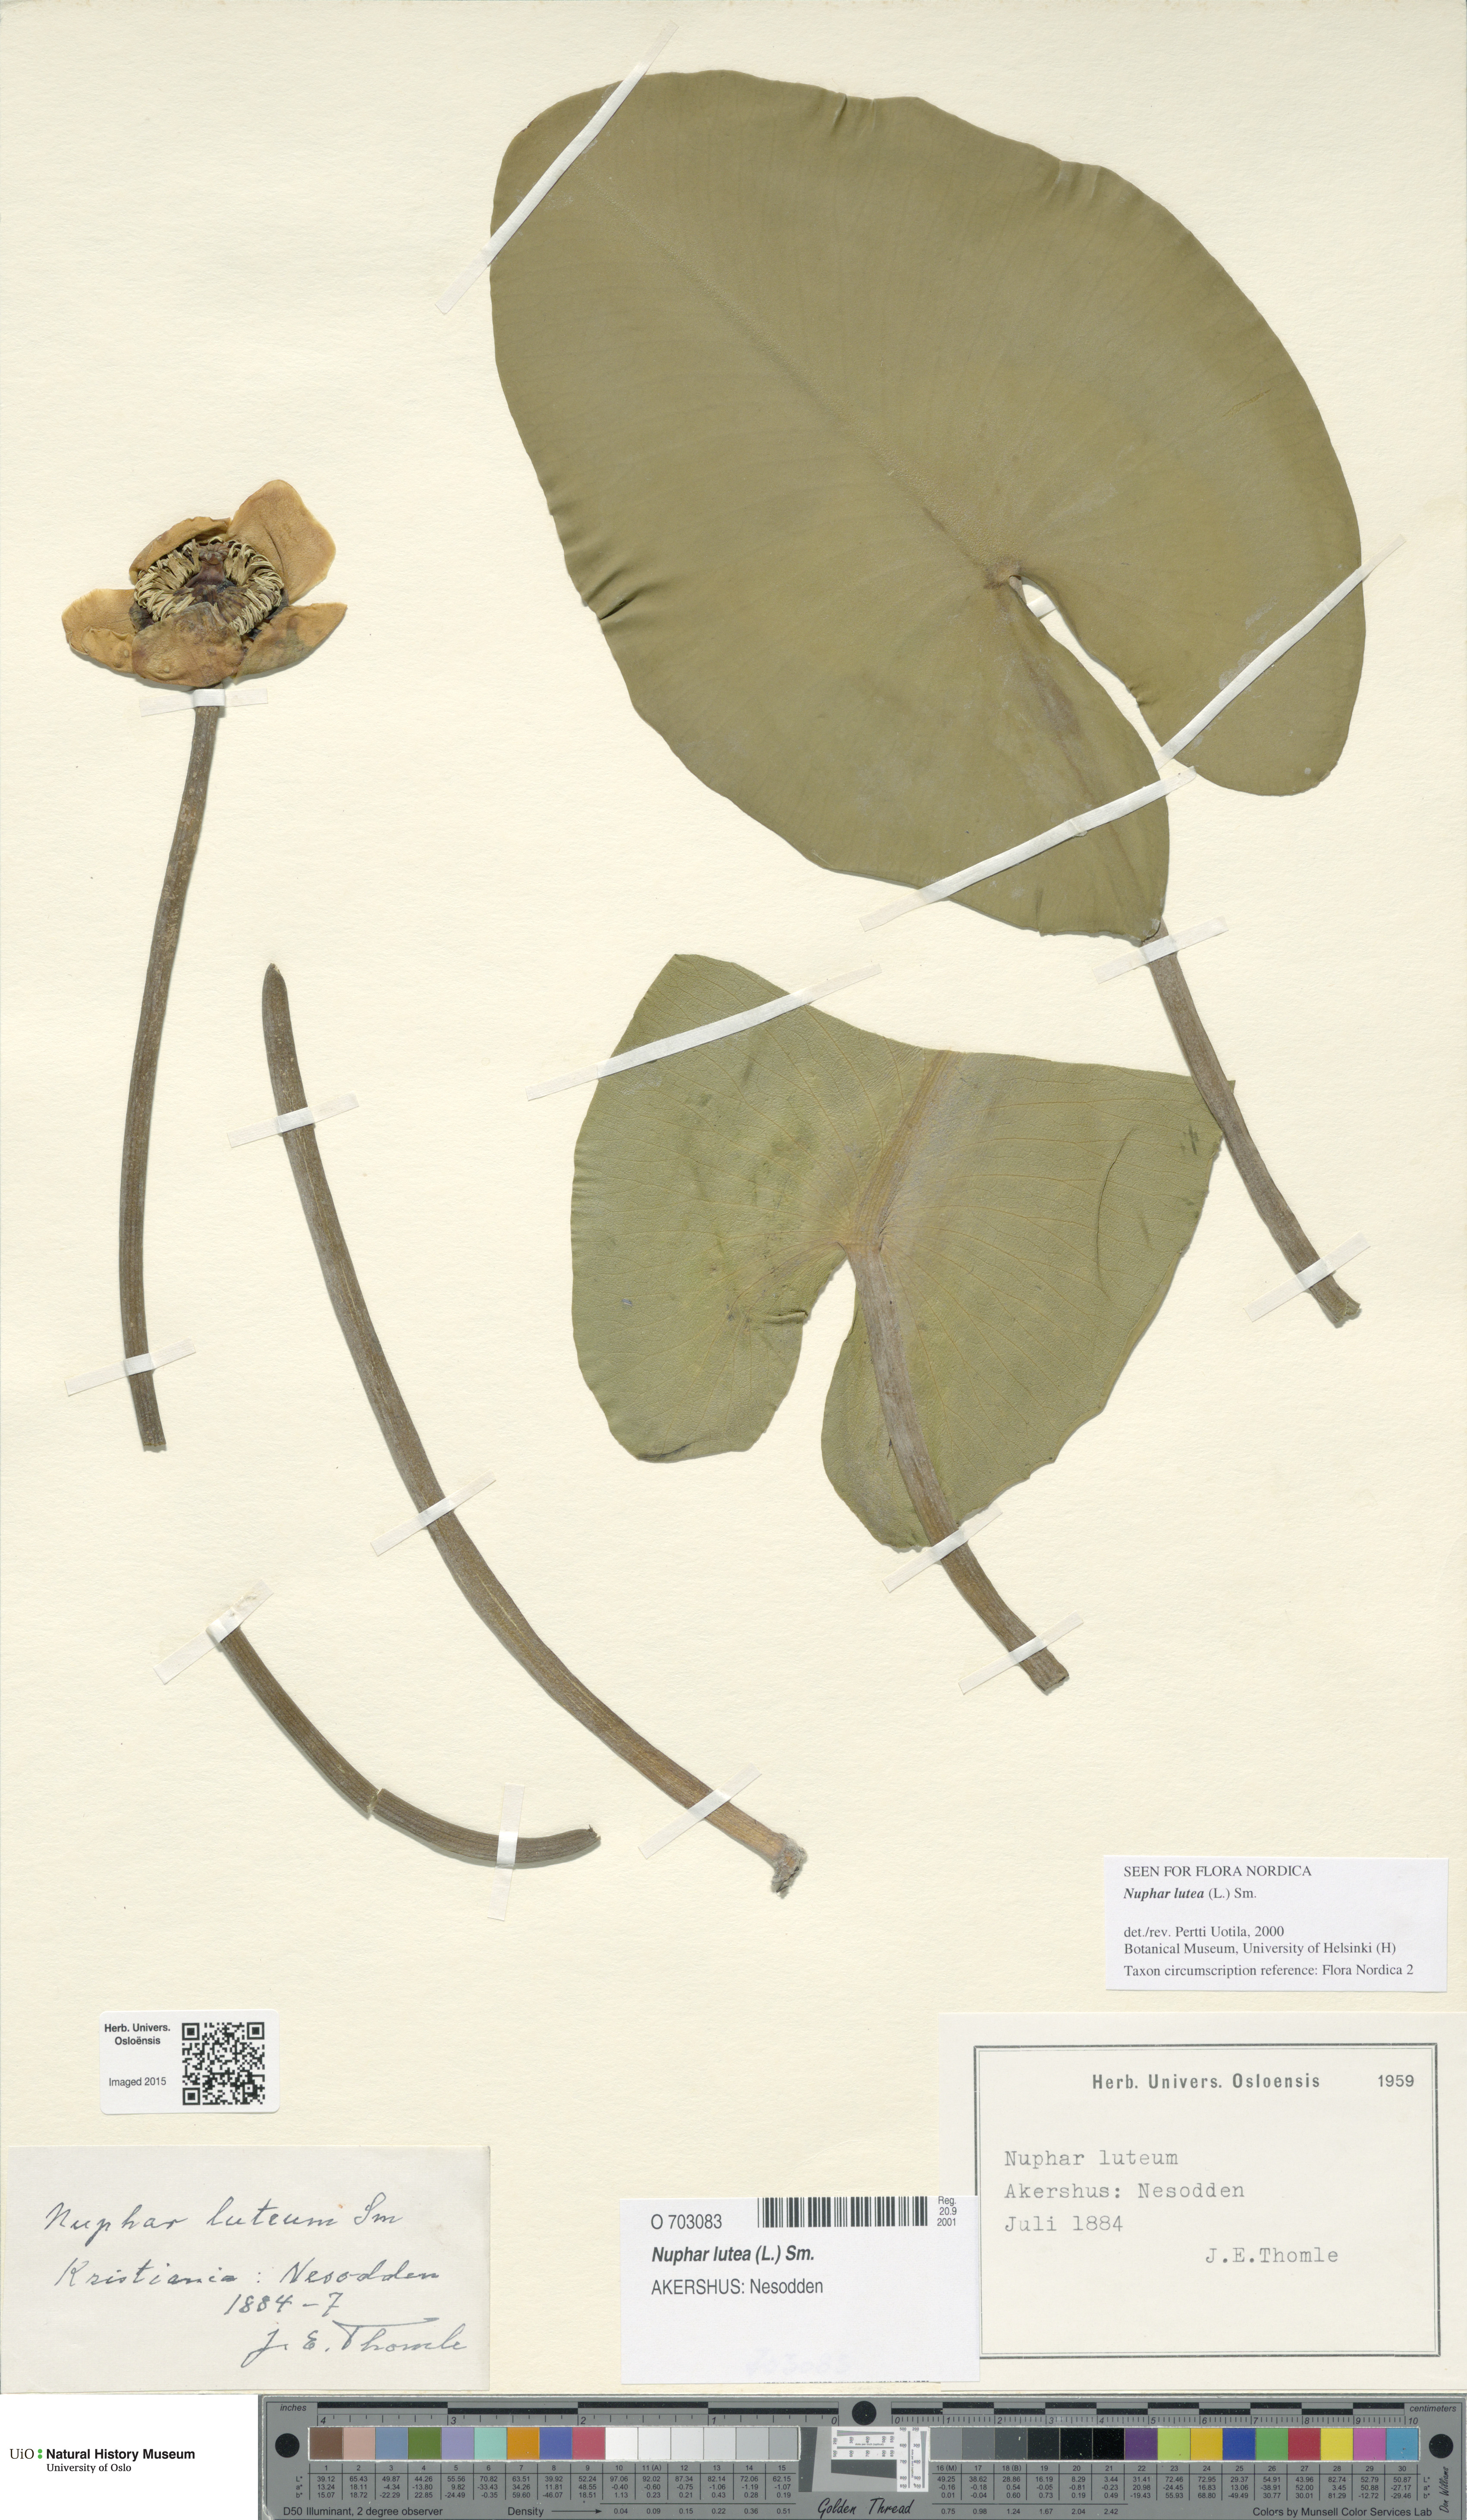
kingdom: Plantae
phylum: Tracheophyta
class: Magnoliopsida
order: Nymphaeales
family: Nymphaeaceae
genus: Nuphar
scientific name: Nuphar lutea
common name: Yellow water-lily
